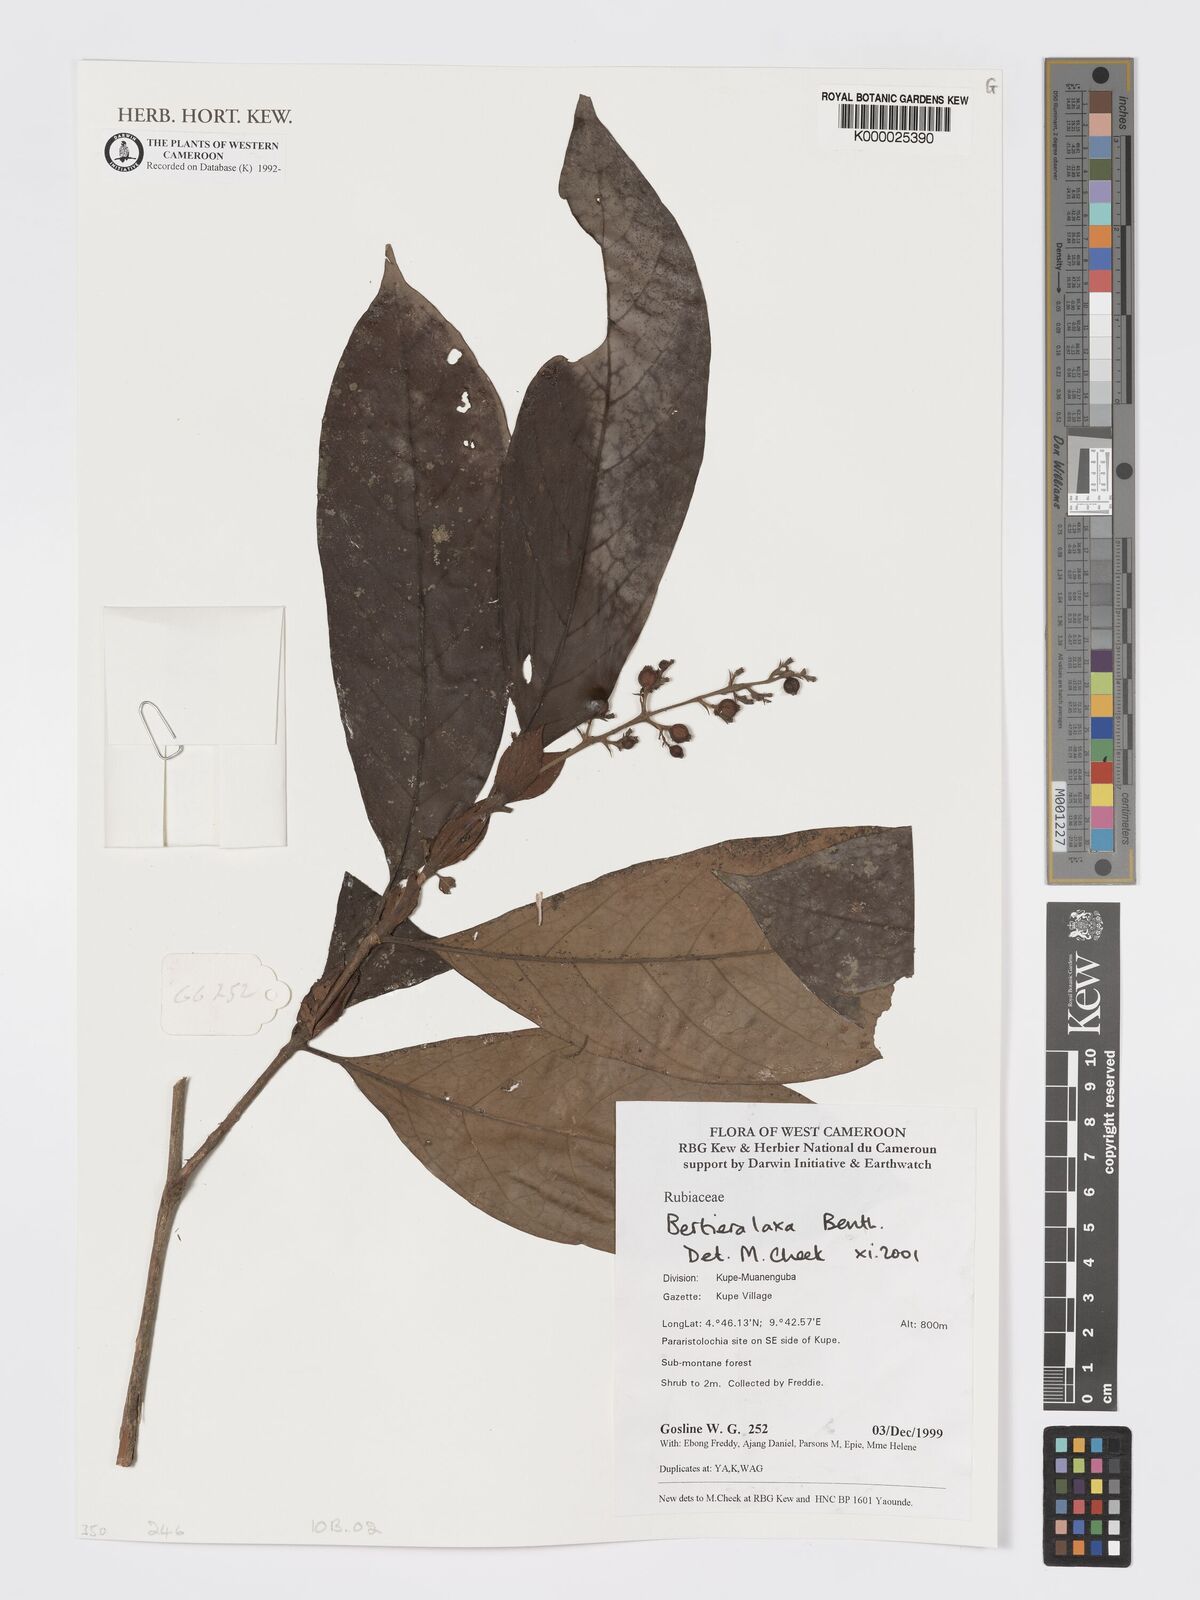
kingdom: Plantae
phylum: Tracheophyta
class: Magnoliopsida
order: Gentianales
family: Rubiaceae
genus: Bertiera
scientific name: Bertiera laxa
